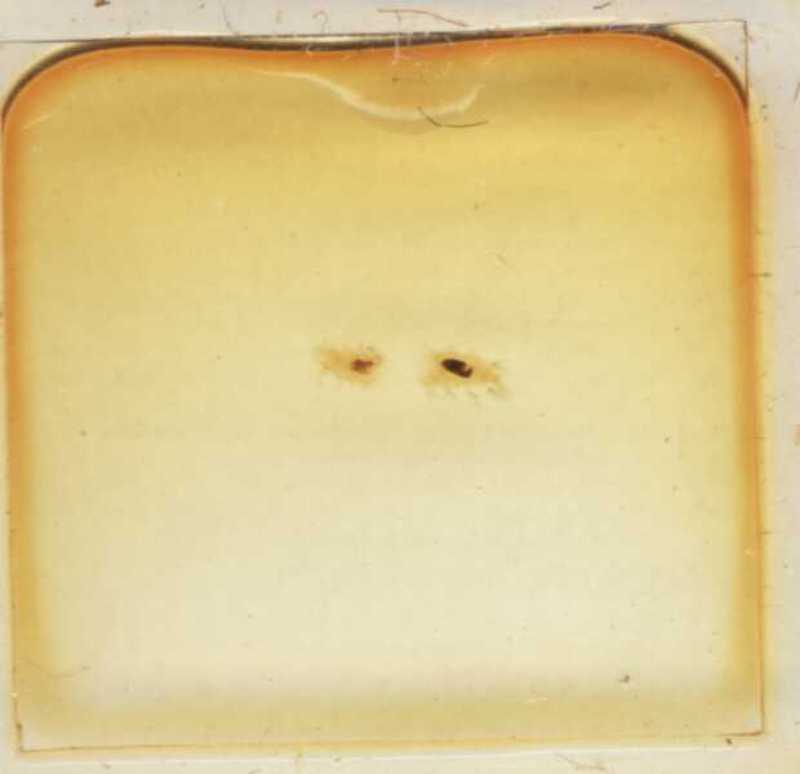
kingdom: Animalia
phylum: Arthropoda
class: Diplopoda
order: Polyxenida
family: Lophoproctidae
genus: Lophoproctus
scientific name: Lophoproctus lucidus
